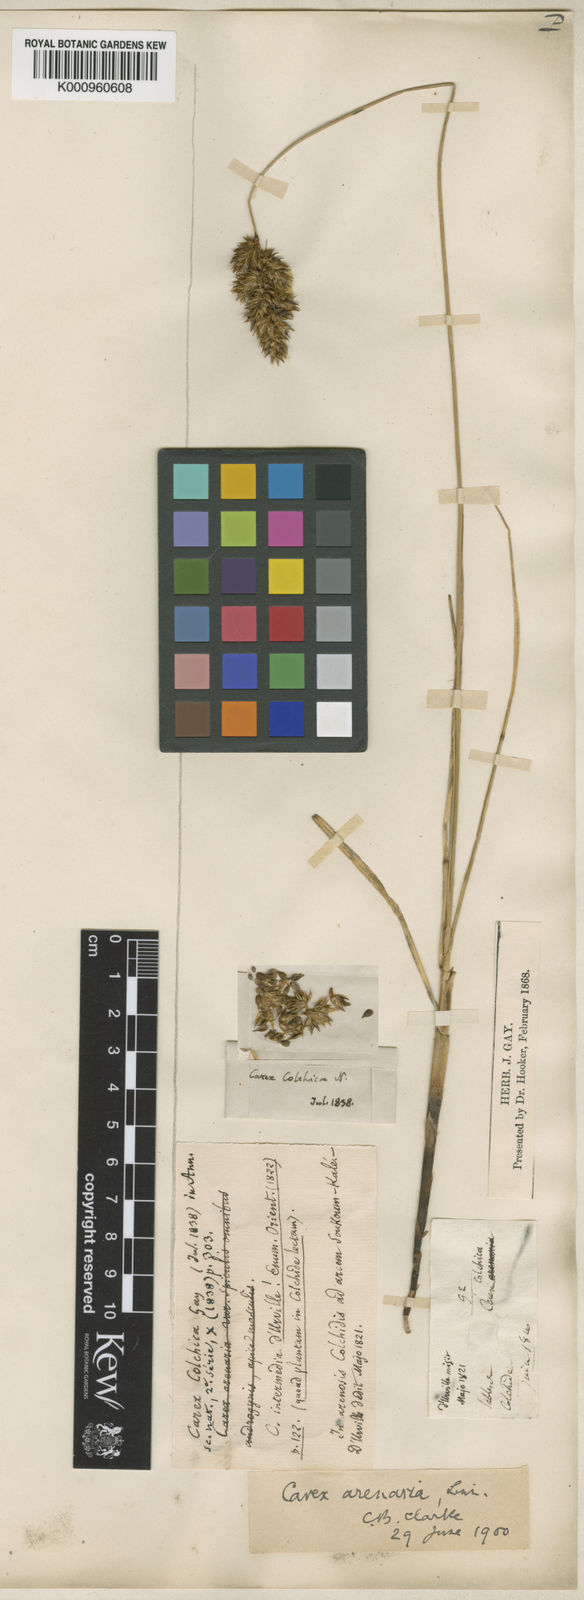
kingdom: Plantae
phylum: Tracheophyta
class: Liliopsida
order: Poales
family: Cyperaceae
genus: Carex
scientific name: Carex arenaria
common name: Sand sedge
